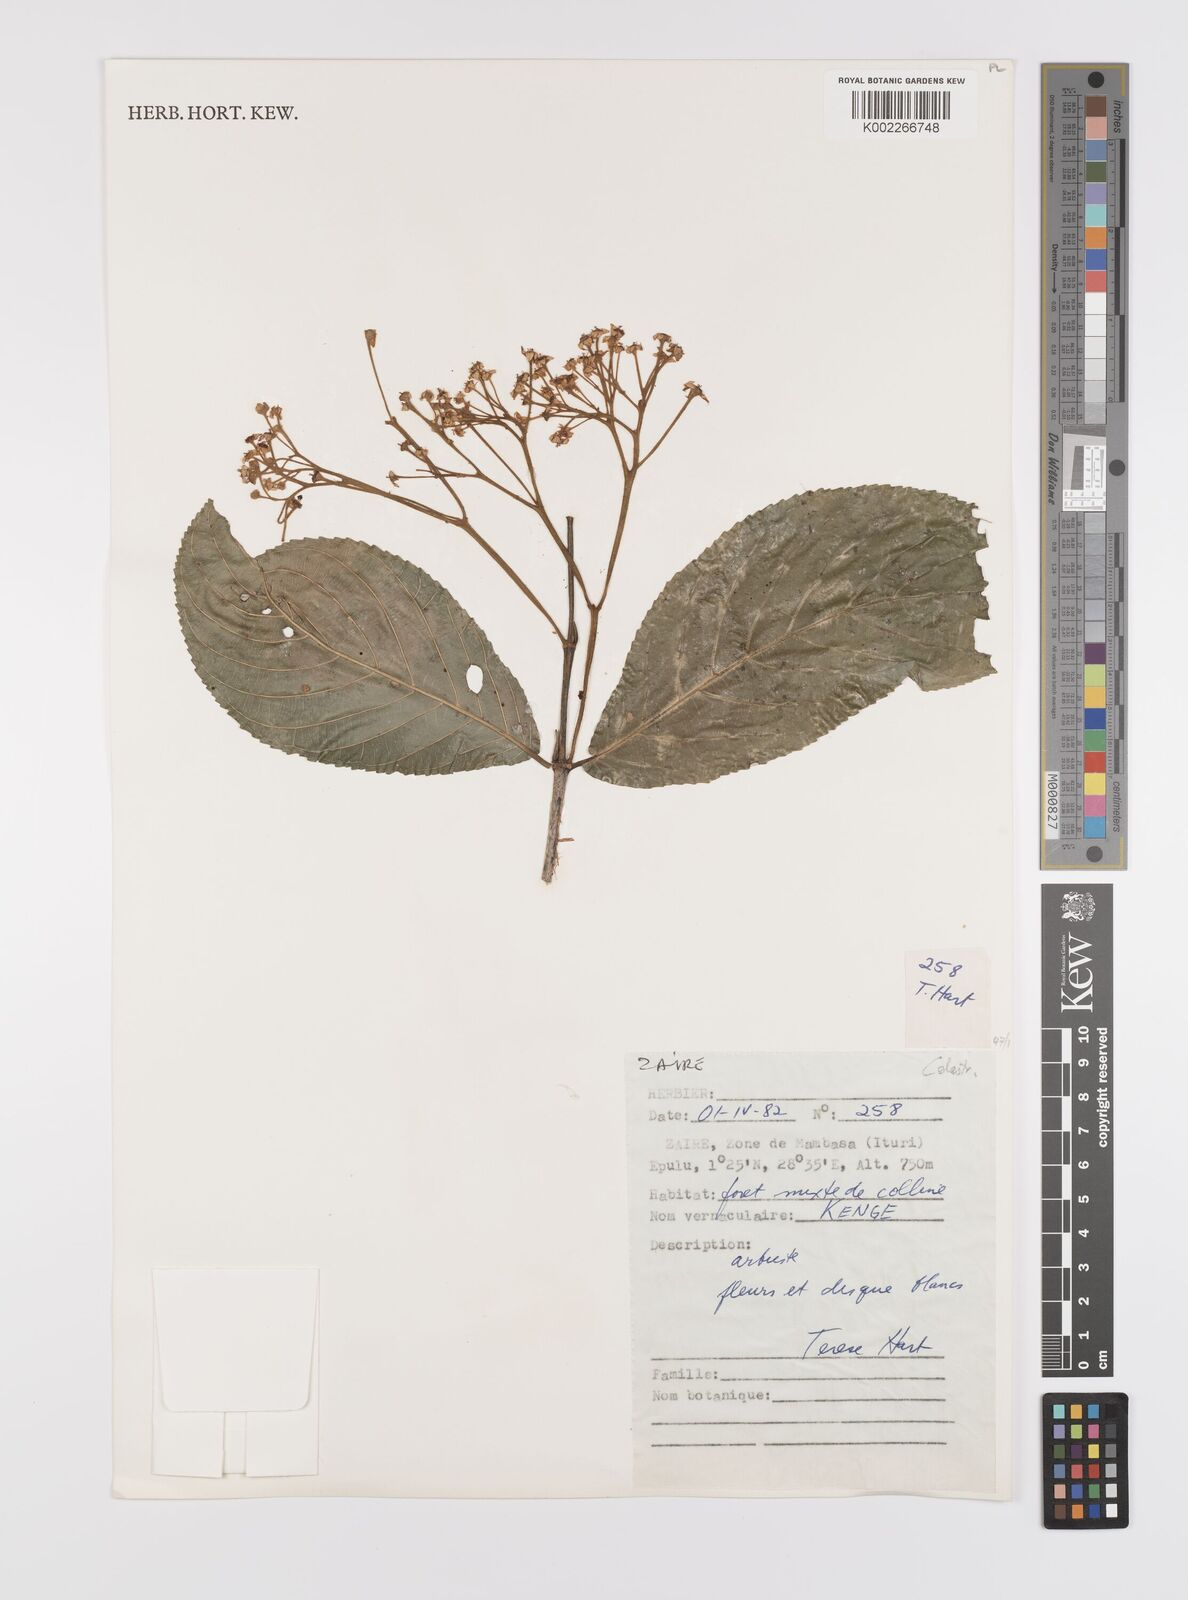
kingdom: Plantae
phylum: Tracheophyta
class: Magnoliopsida
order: Celastrales
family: Celastraceae
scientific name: Celastraceae
